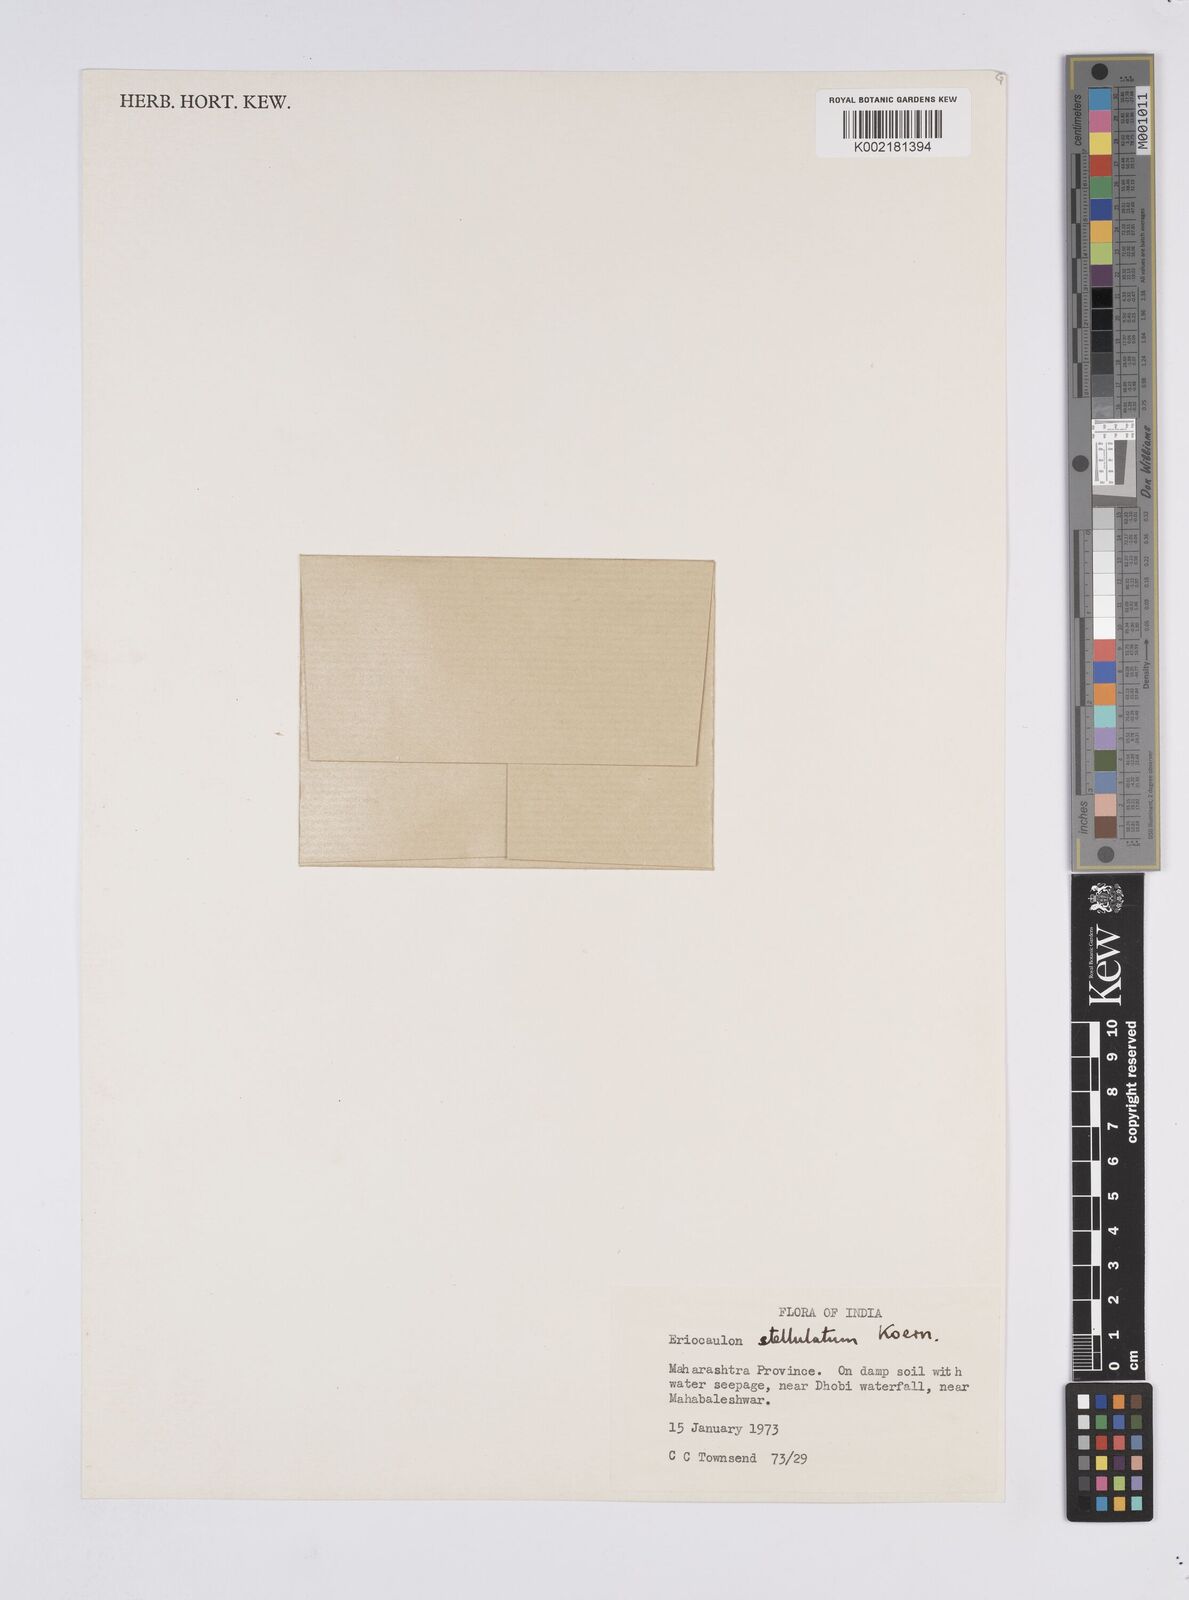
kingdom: Plantae
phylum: Tracheophyta
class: Liliopsida
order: Poales
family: Eriocaulaceae
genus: Eriocaulon
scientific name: Eriocaulon stellulatum
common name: Starry pipewort
